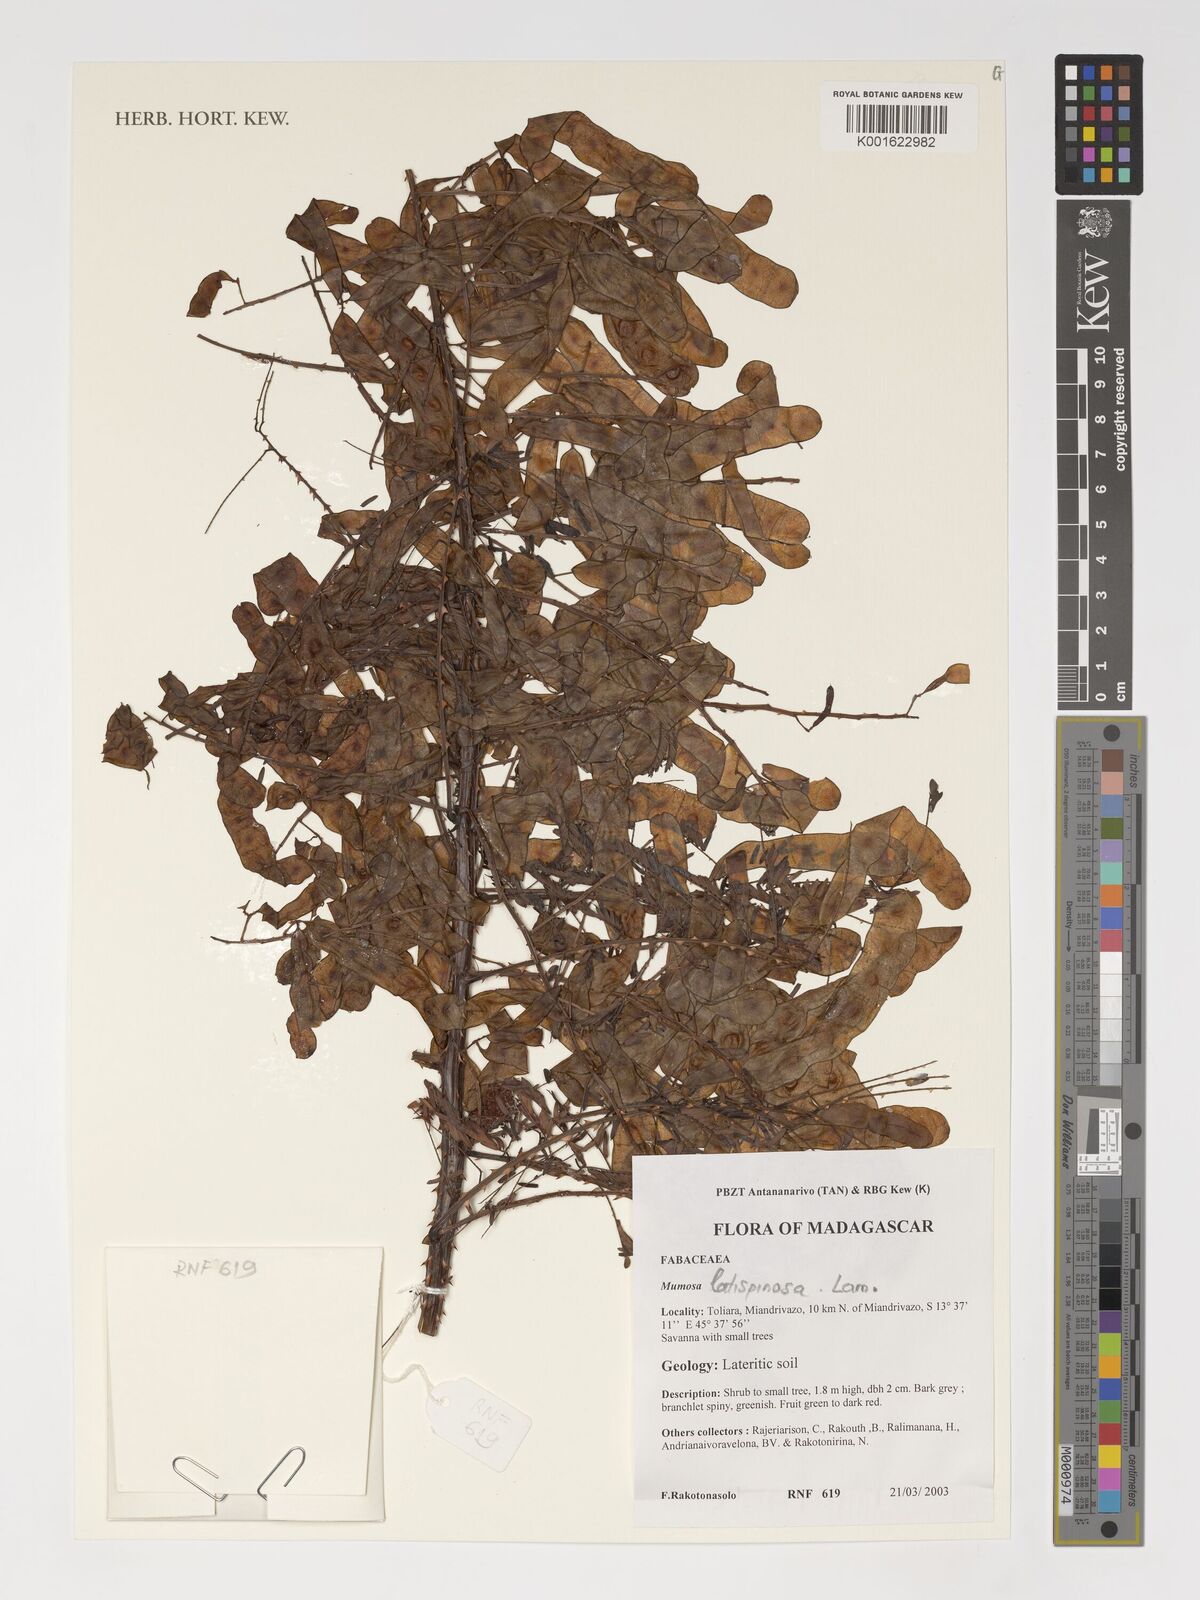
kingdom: Plantae
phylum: Tracheophyta
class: Magnoliopsida
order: Fabales
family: Fabaceae
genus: Mimosa
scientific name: Mimosa latispinosa
